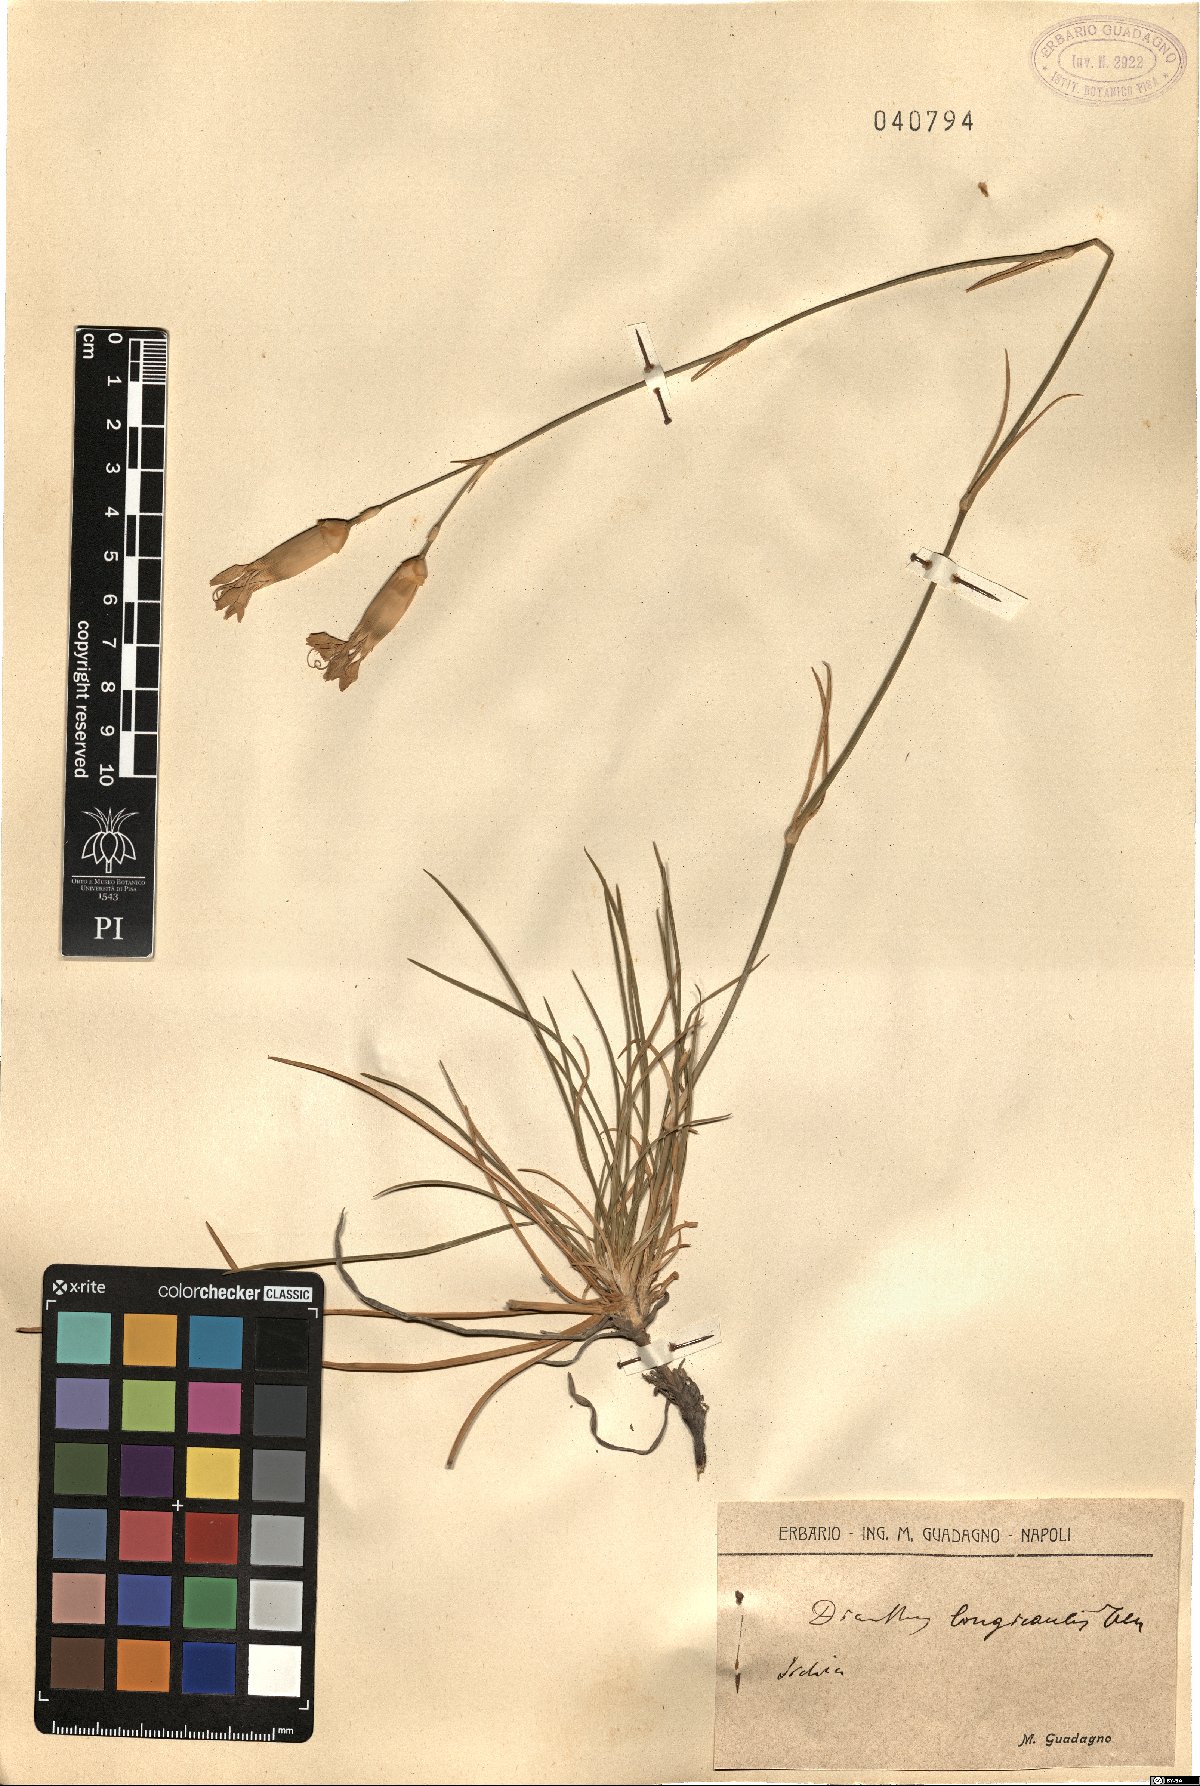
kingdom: Plantae
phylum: Tracheophyta
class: Magnoliopsida
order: Caryophyllales
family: Caryophyllaceae
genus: Dianthus
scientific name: Dianthus virgineus
